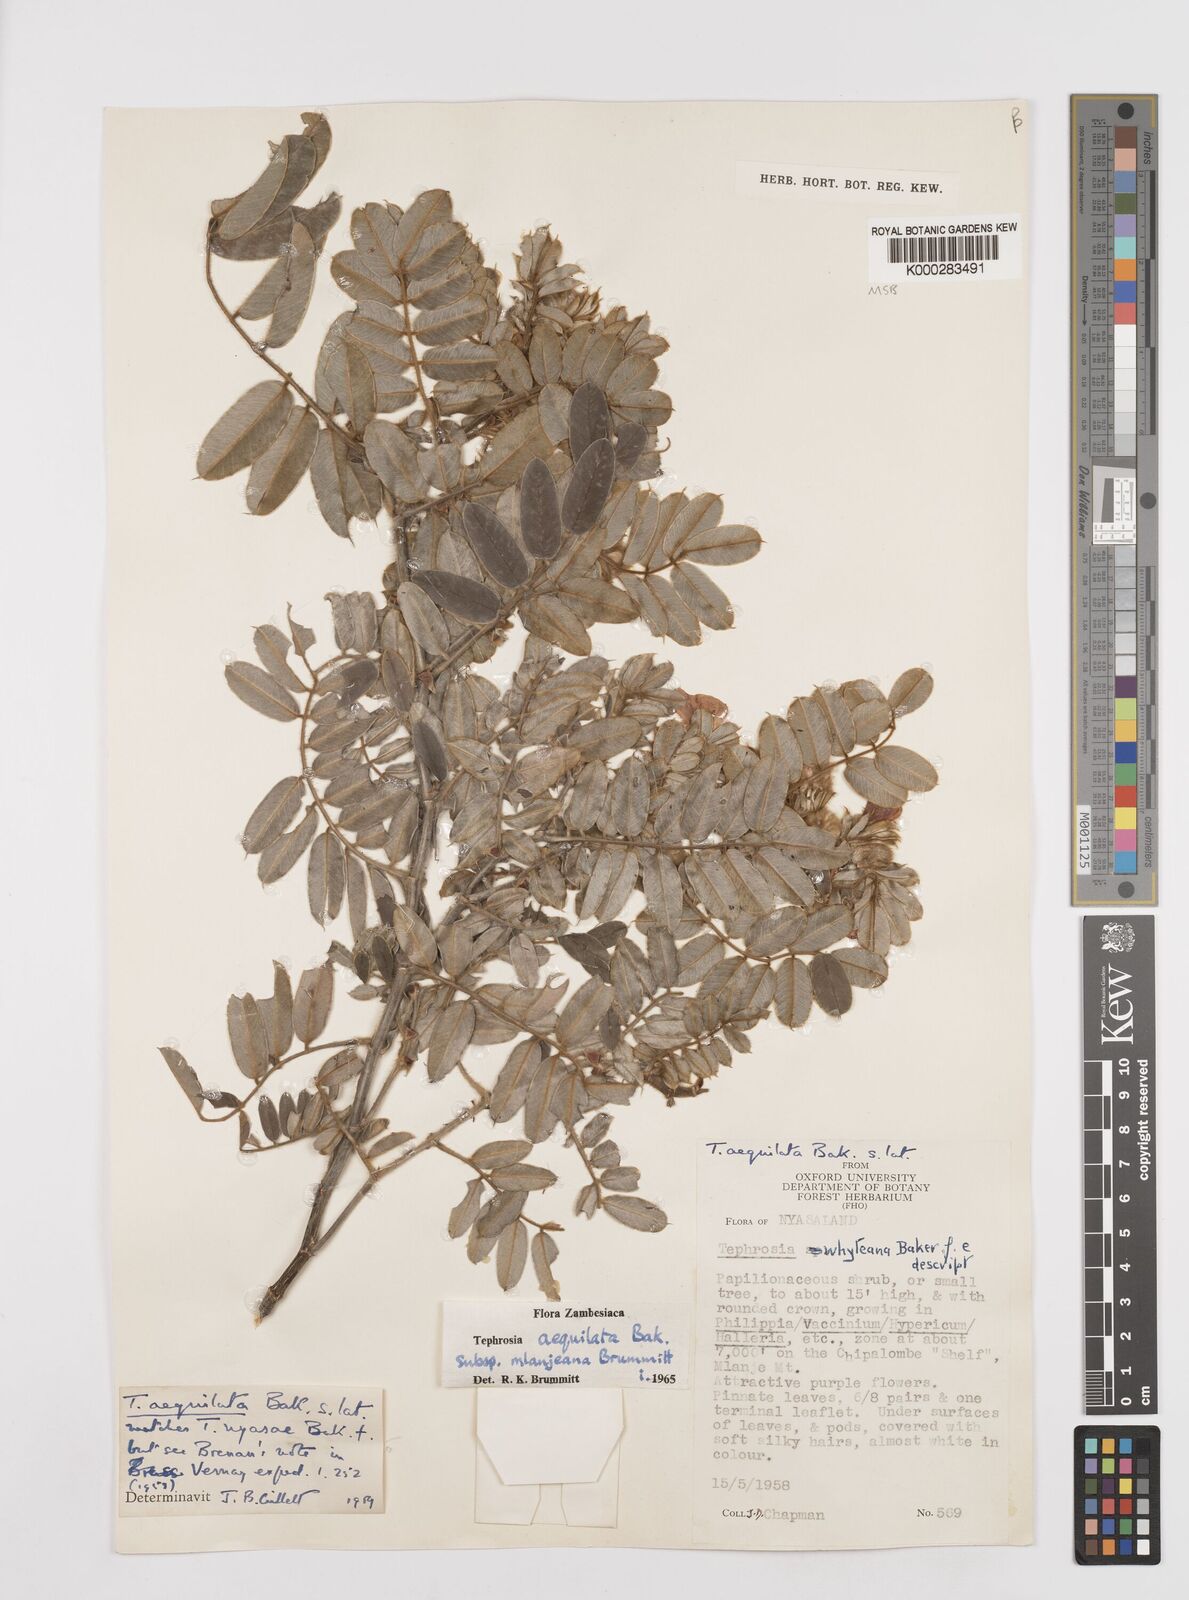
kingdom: Plantae
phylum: Tracheophyta
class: Magnoliopsida
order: Fabales
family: Fabaceae
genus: Tephrosia
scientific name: Tephrosia aequilata
